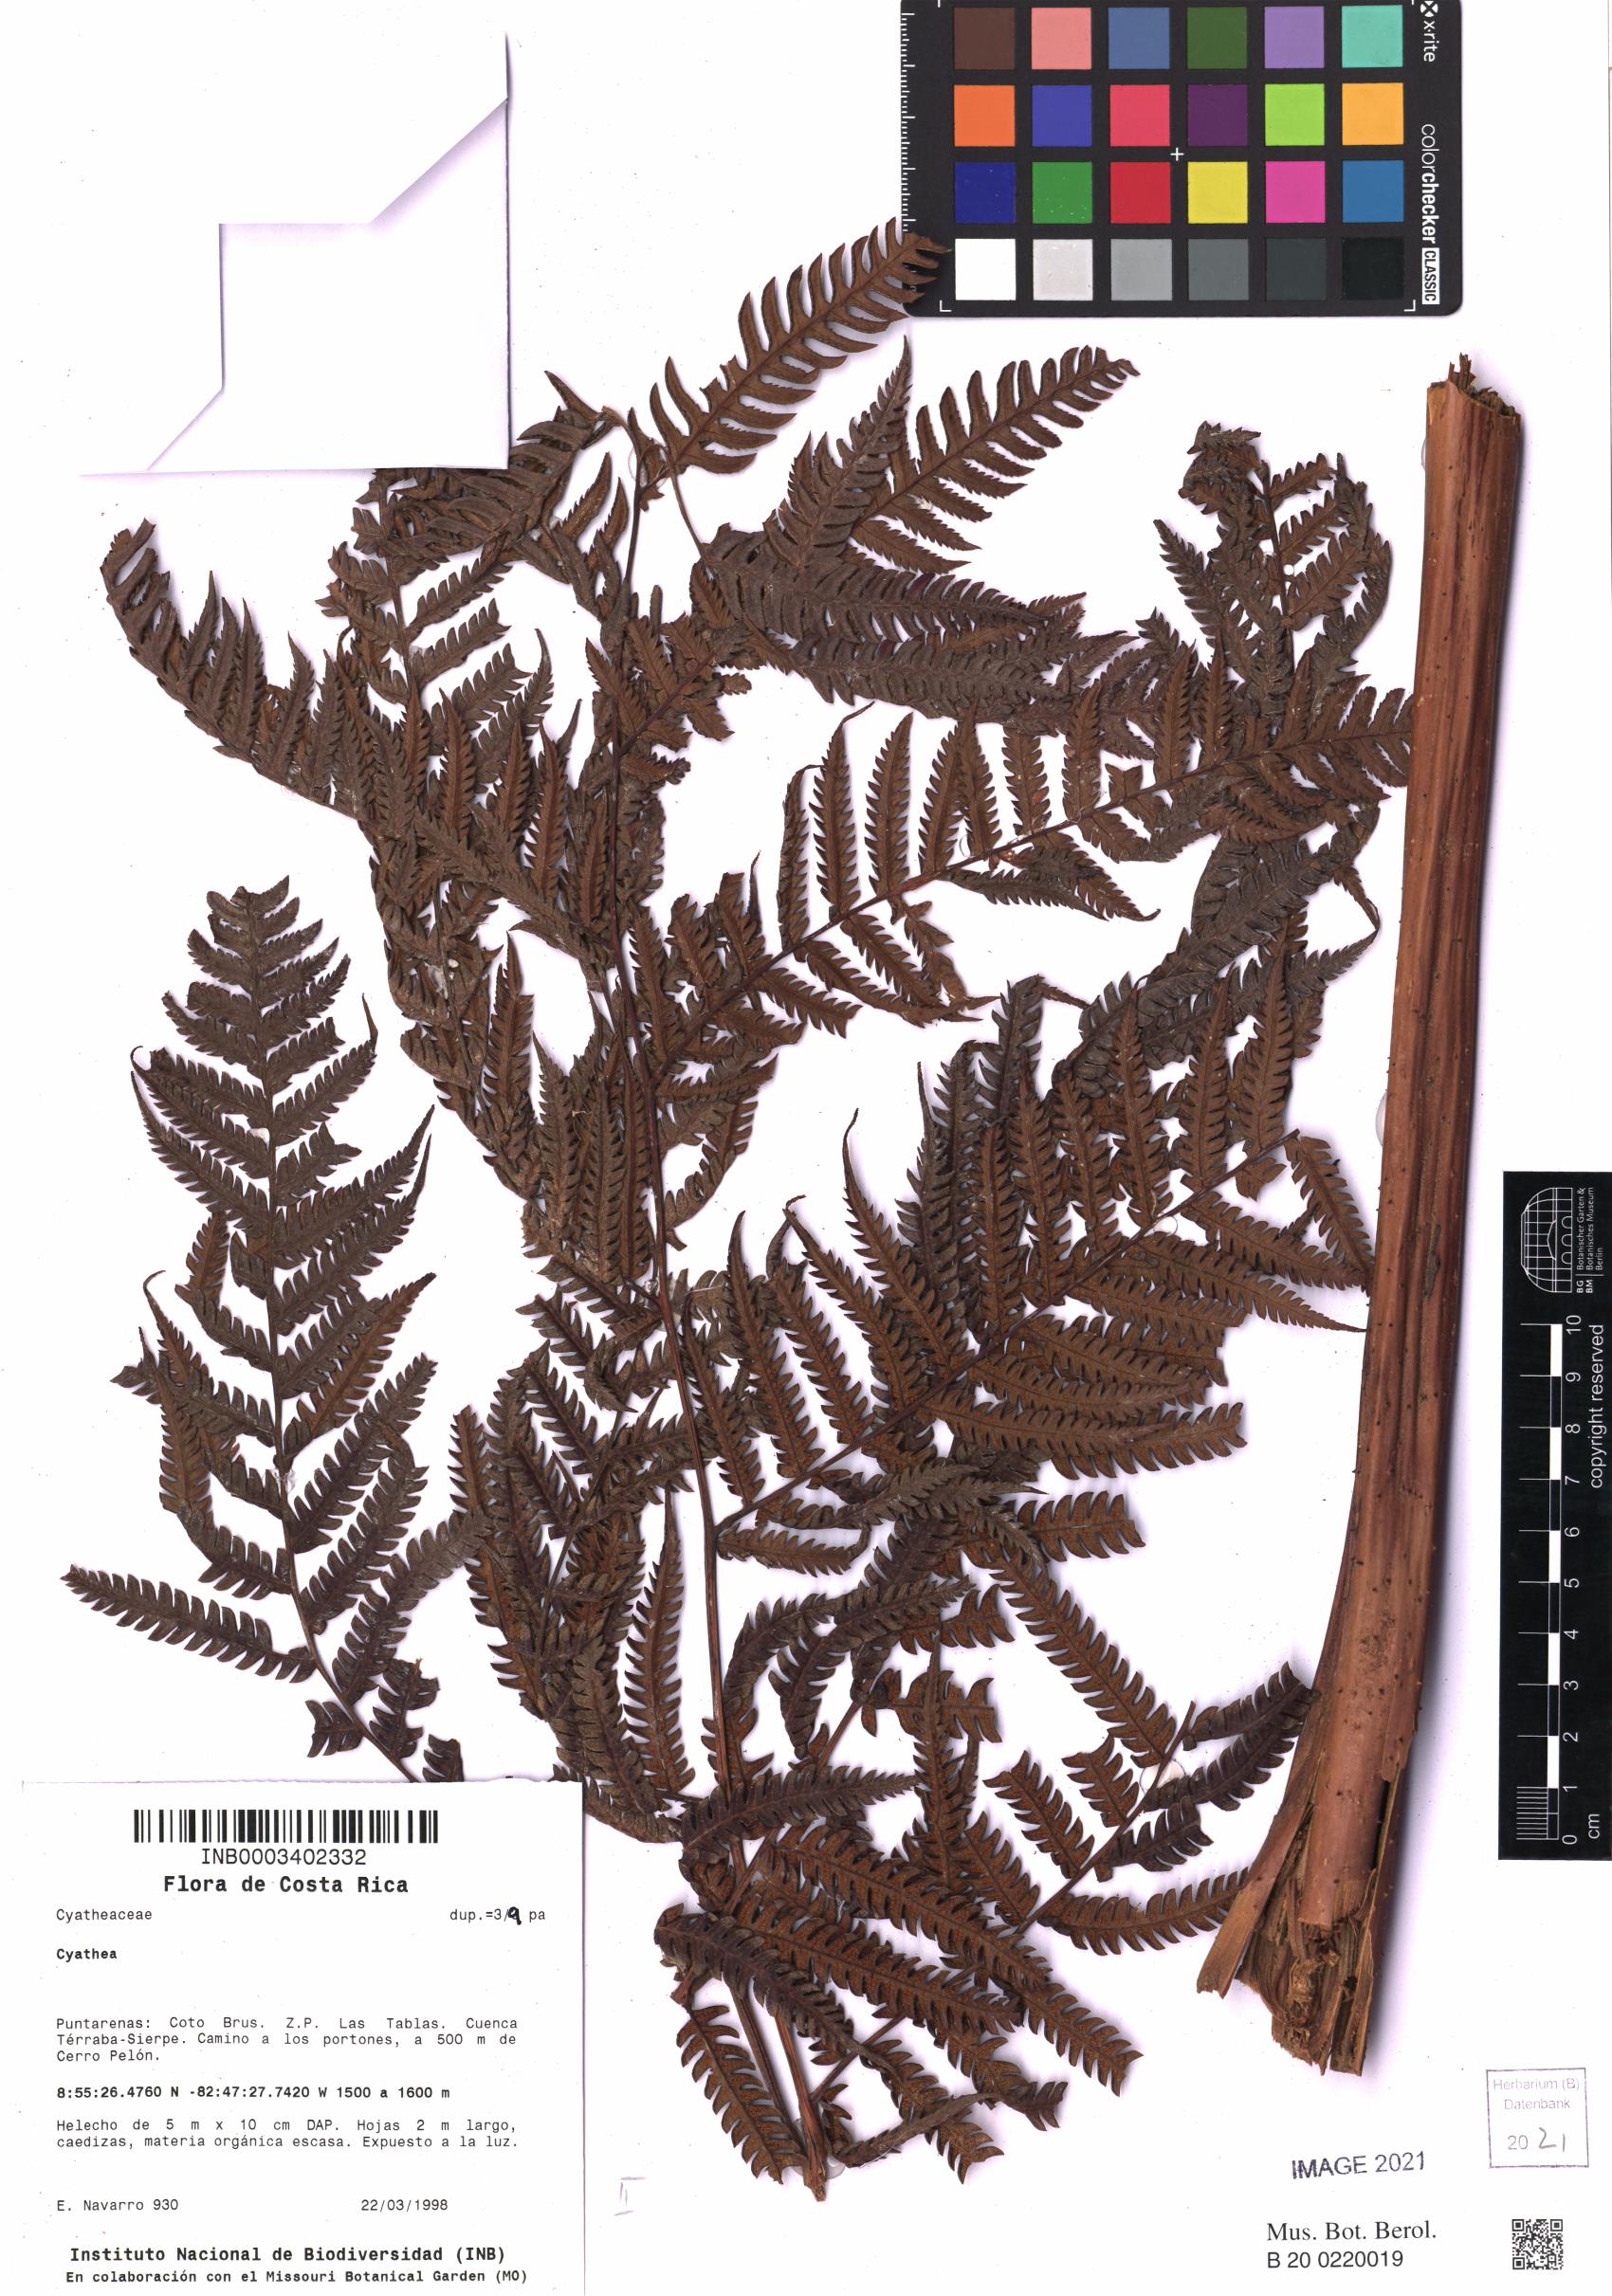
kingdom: Plantae
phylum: Tracheophyta
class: Polypodiopsida
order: Cyatheales
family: Cyatheaceae
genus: Cyathea
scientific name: Cyathea
